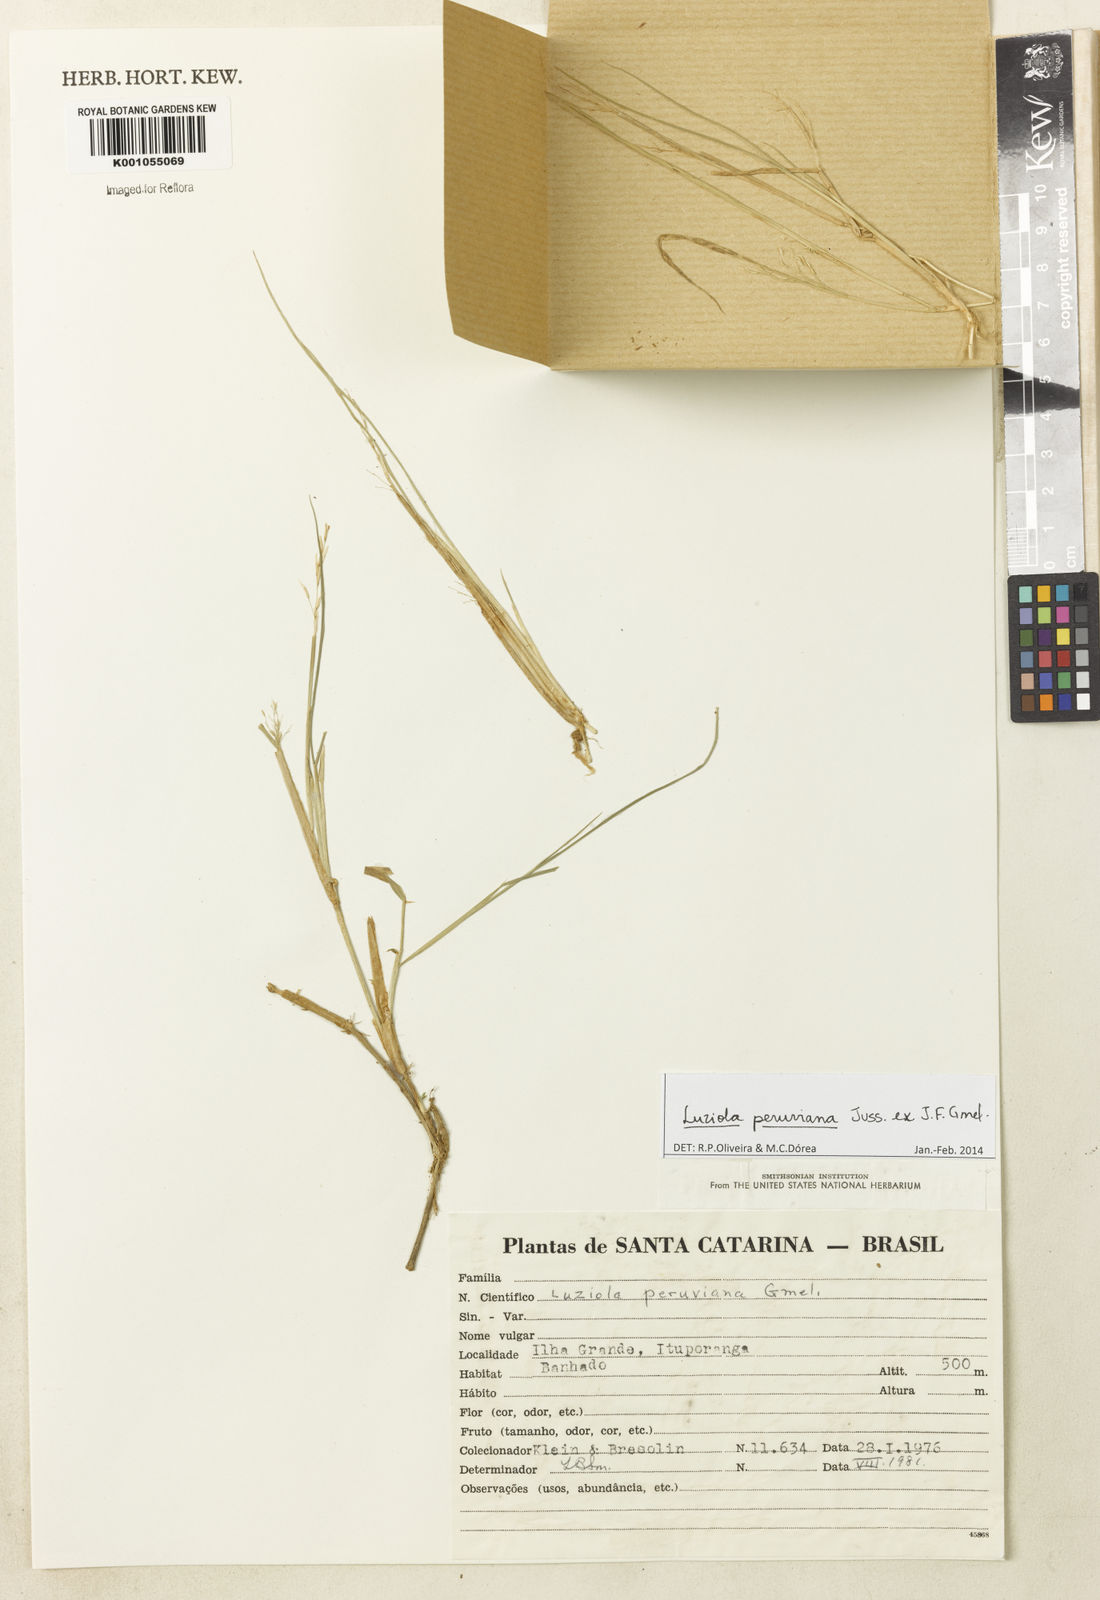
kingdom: Plantae
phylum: Tracheophyta
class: Liliopsida
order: Poales
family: Poaceae
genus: Luziola
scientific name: Luziola peruviana
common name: Peruvian watergrass
